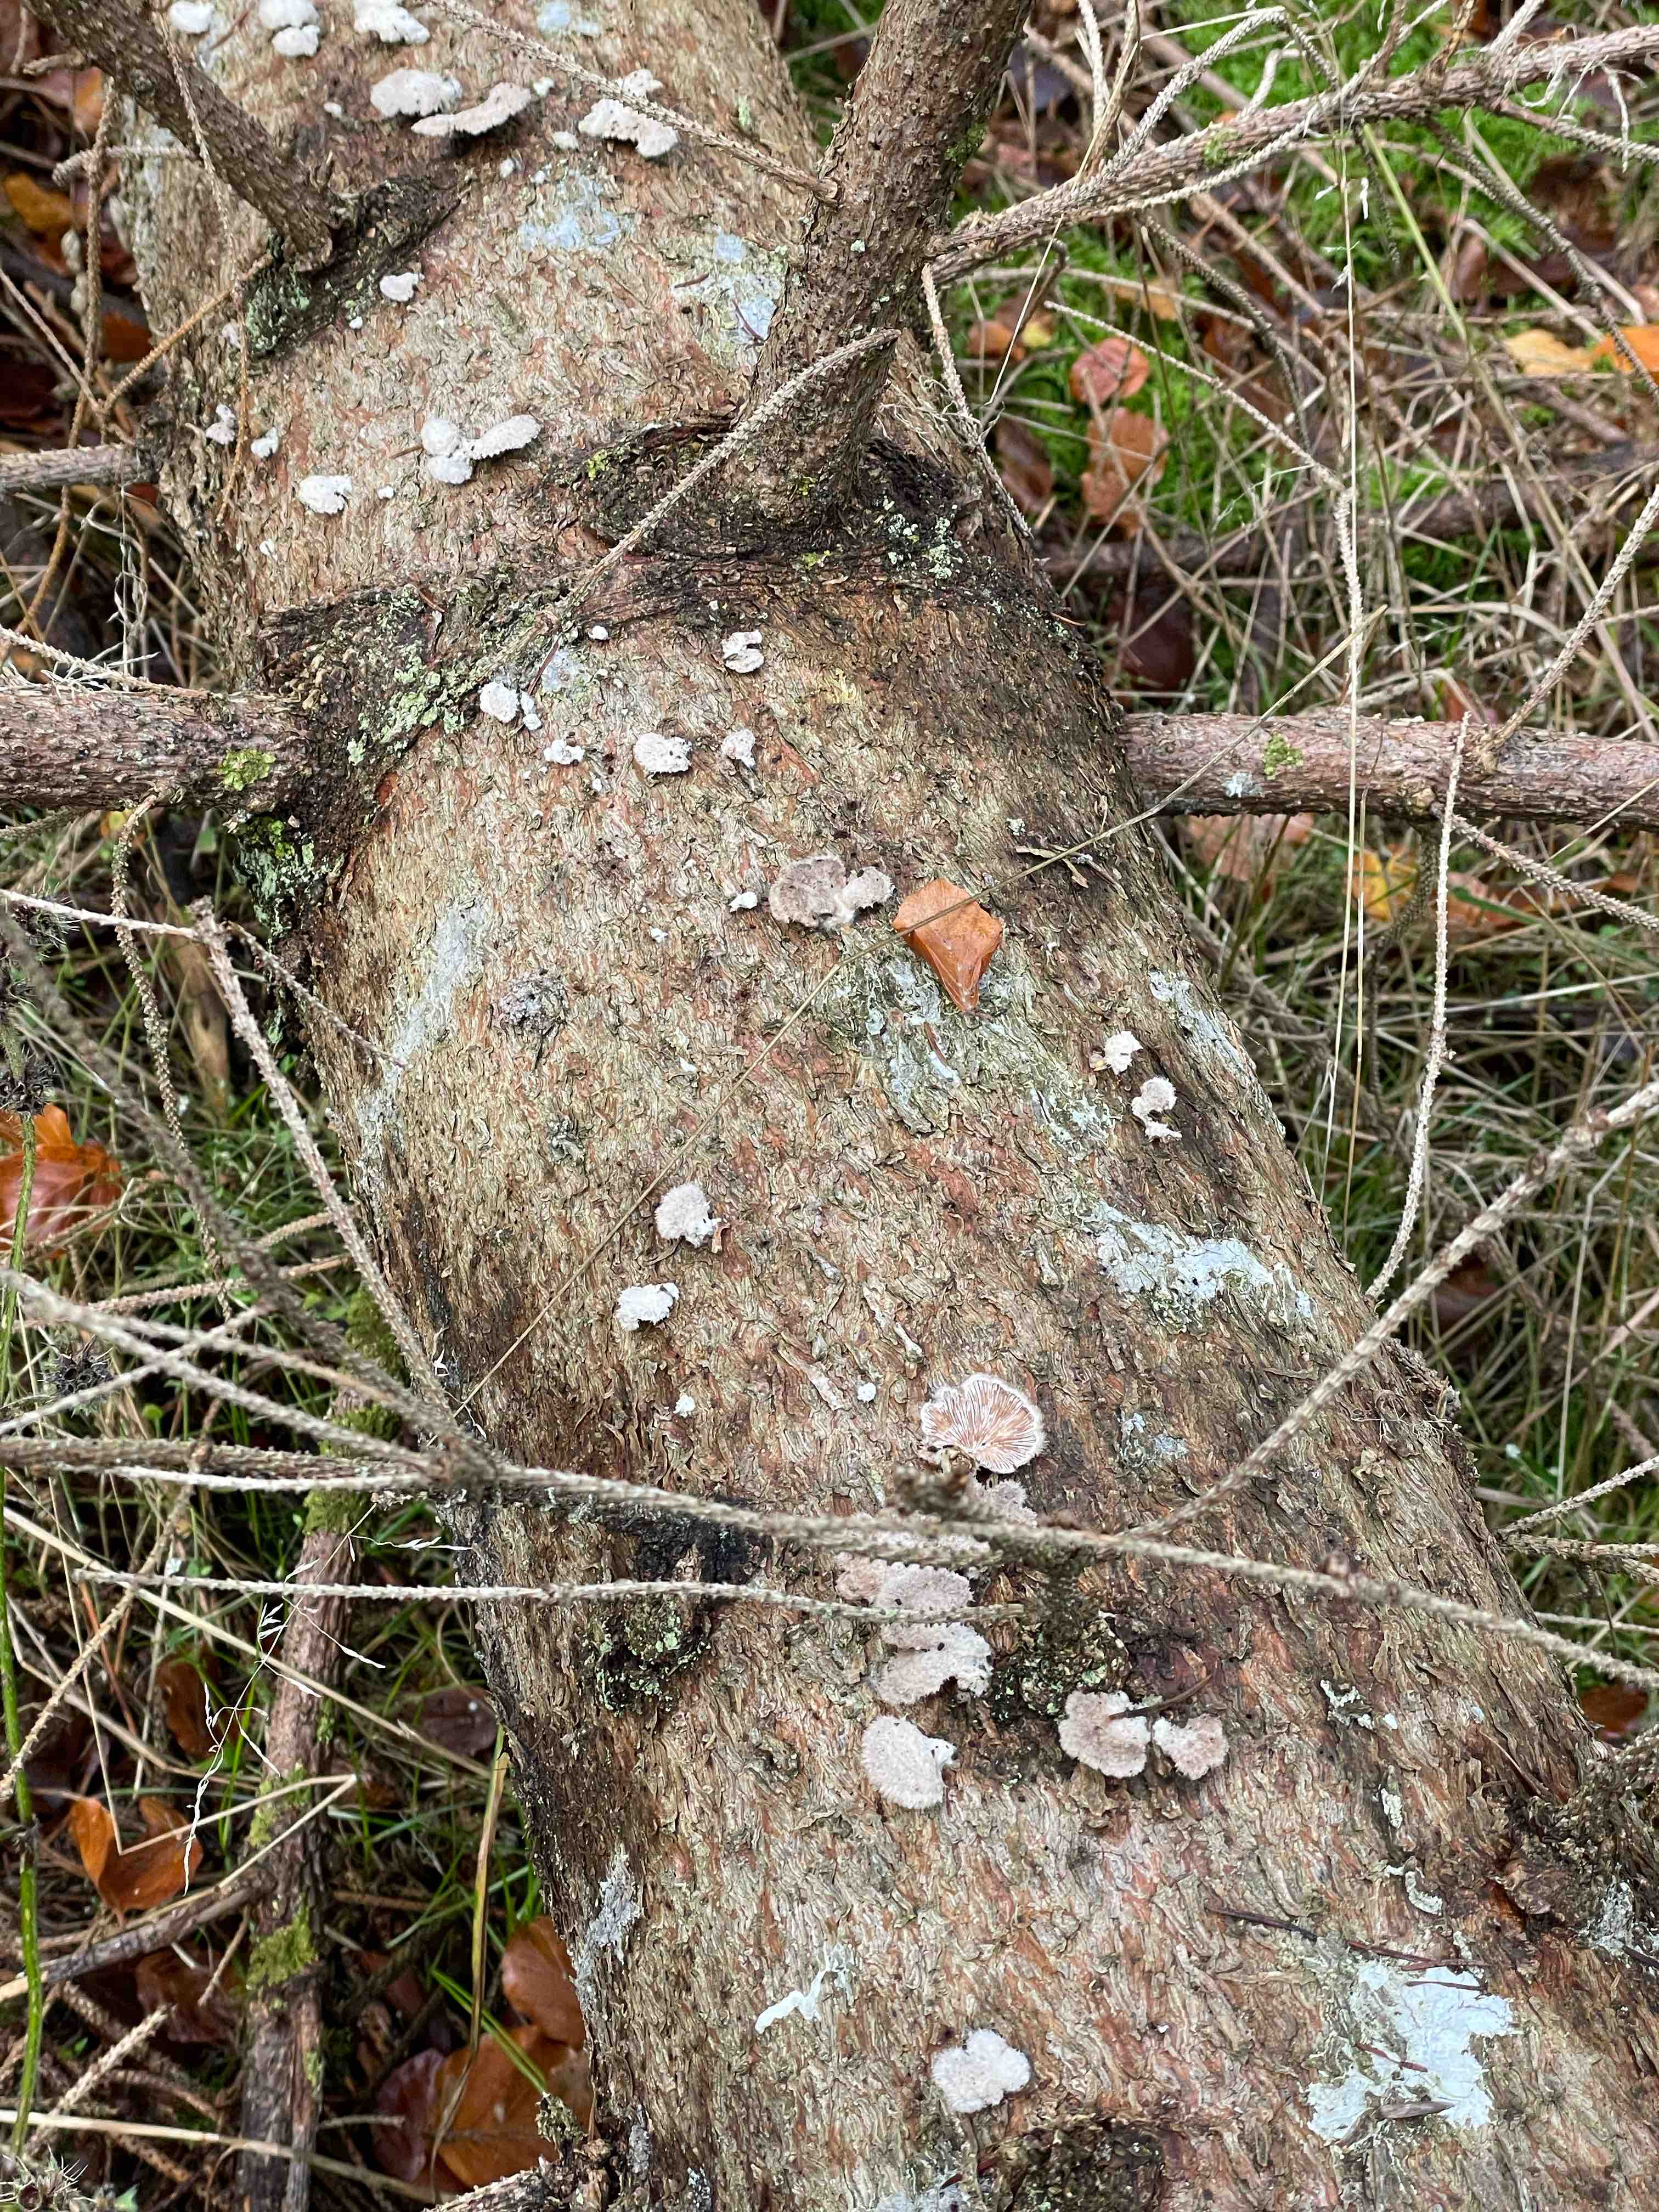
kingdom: Fungi
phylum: Basidiomycota
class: Agaricomycetes
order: Agaricales
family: Schizophyllaceae
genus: Schizophyllum
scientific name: Schizophyllum commune
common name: kløvblad
